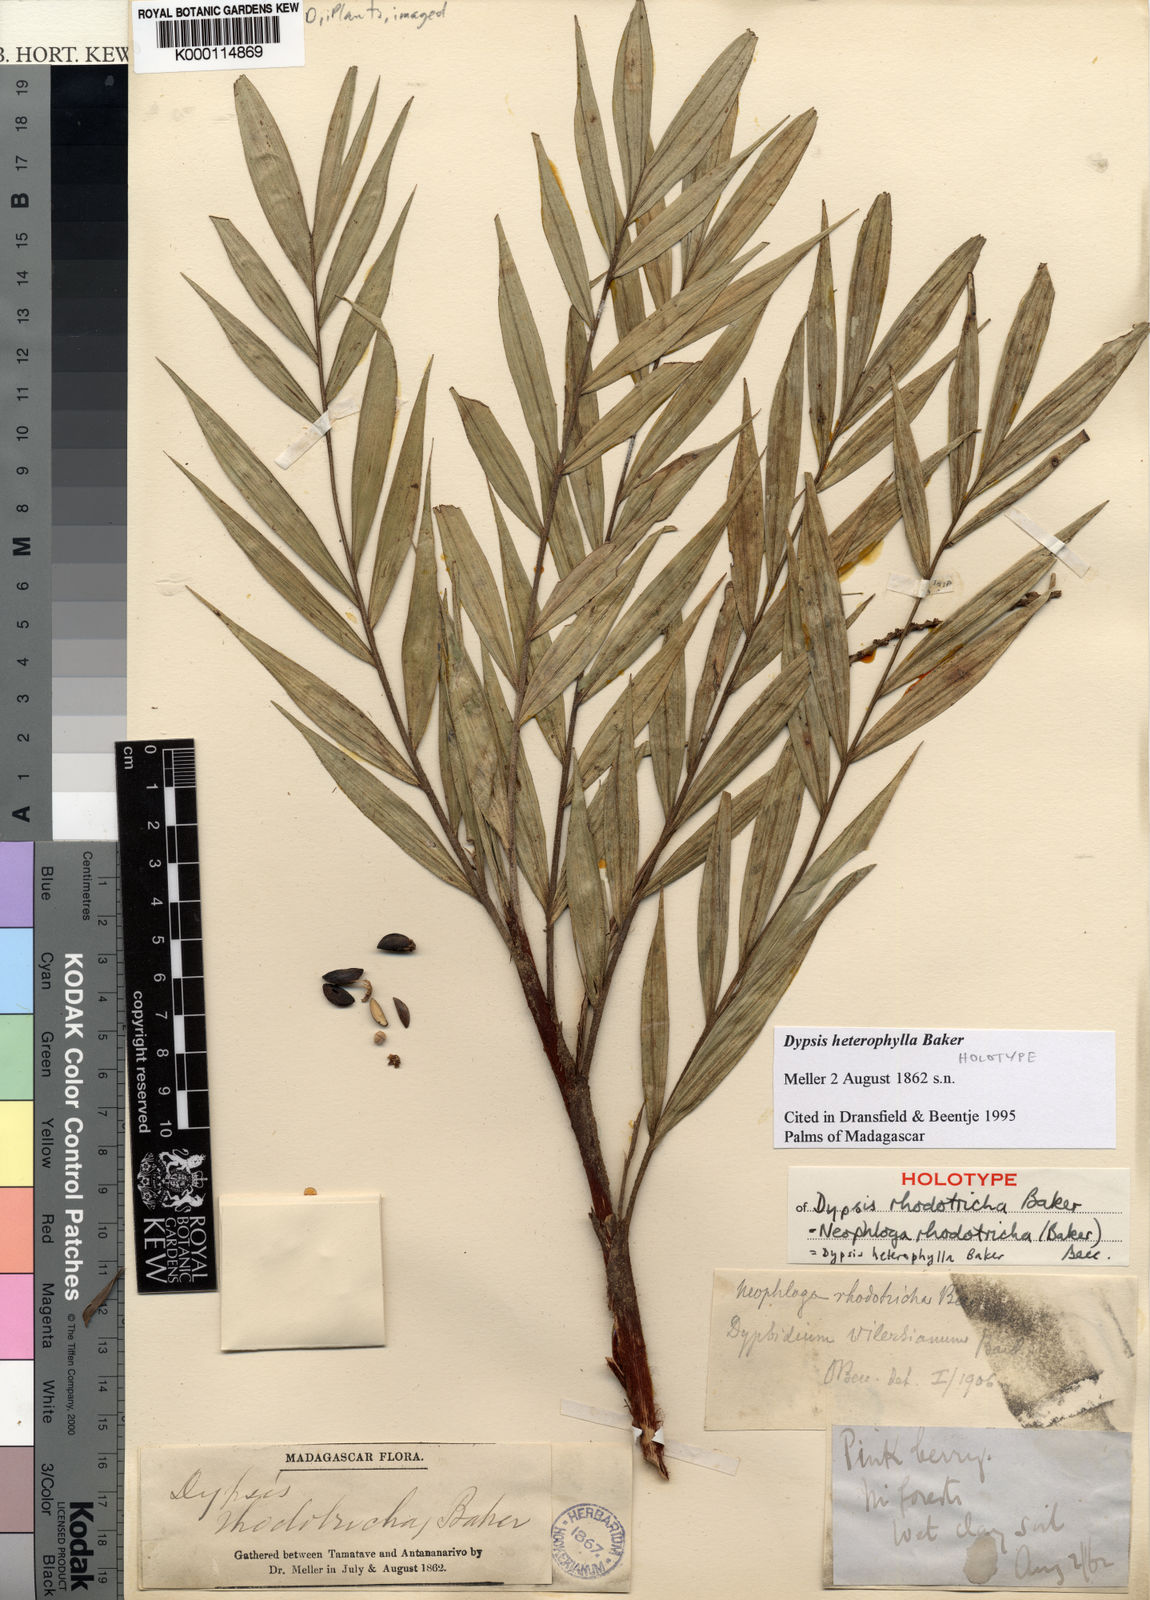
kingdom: Plantae
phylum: Tracheophyta
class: Liliopsida
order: Arecales
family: Arecaceae
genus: Dypsis
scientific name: Dypsis heterophylla
